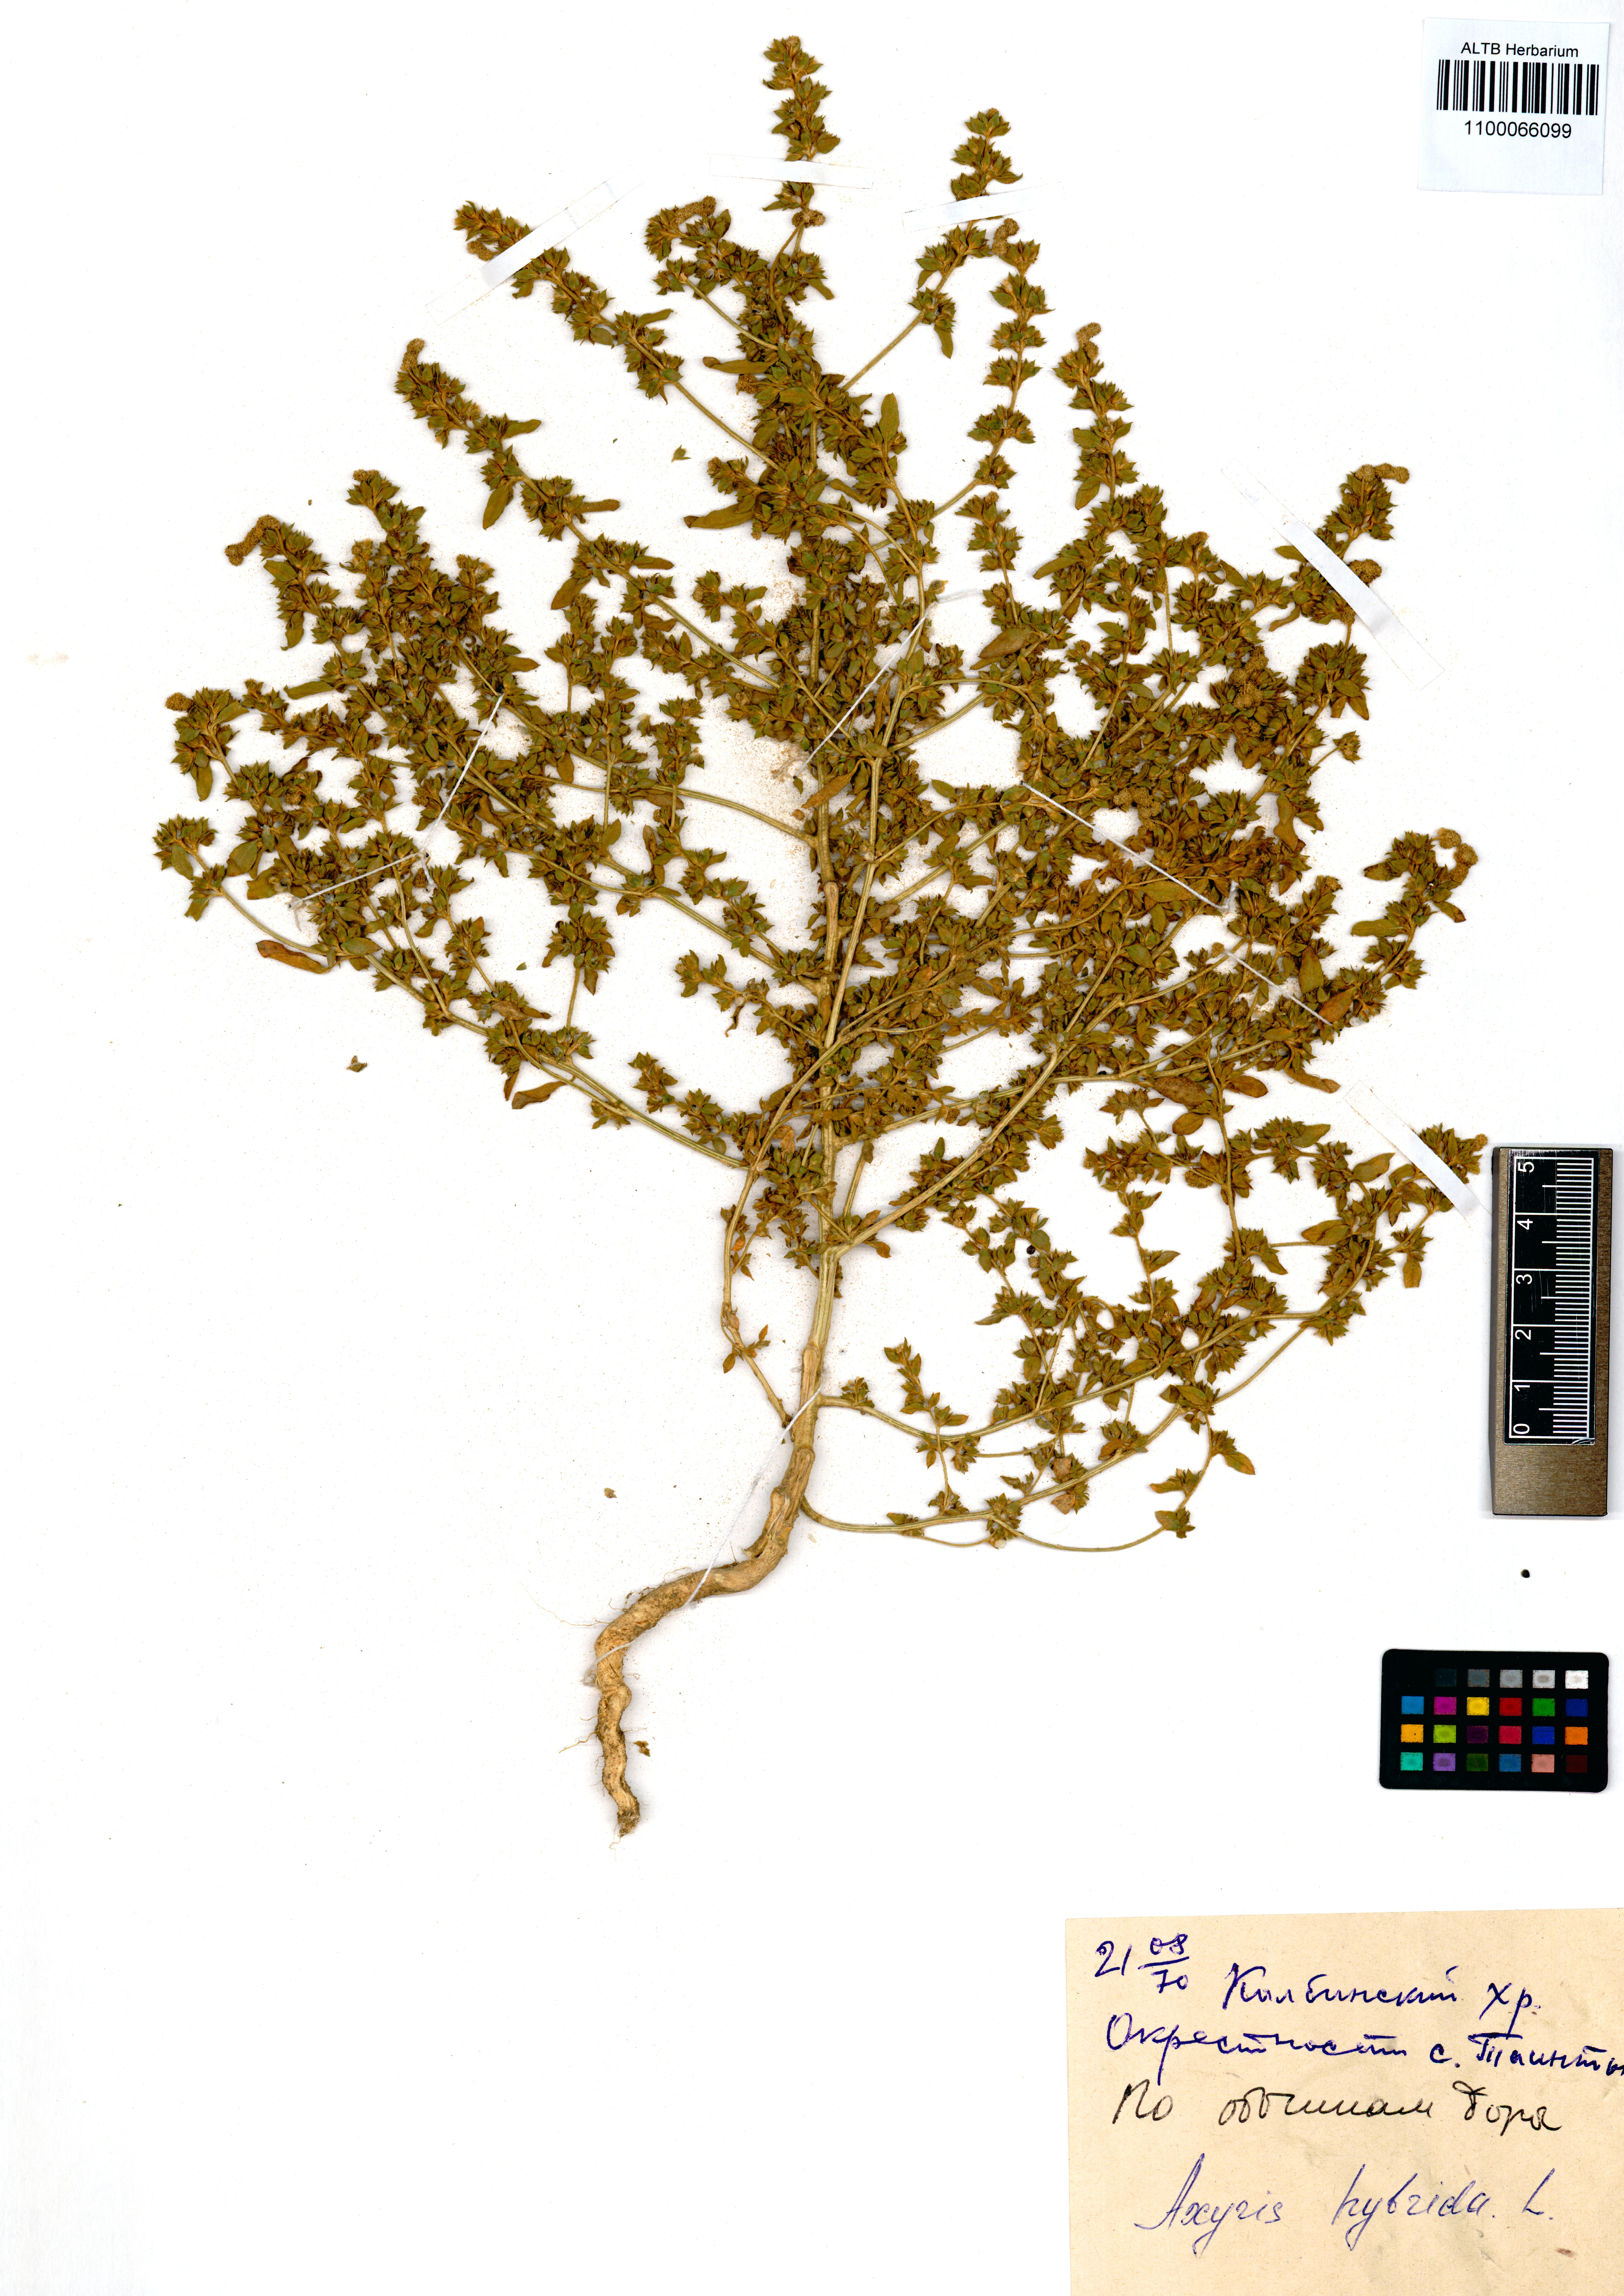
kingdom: Plantae
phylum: Tracheophyta
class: Magnoliopsida
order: Caryophyllales
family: Amaranthaceae
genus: Axyris
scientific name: Axyris hybrida
